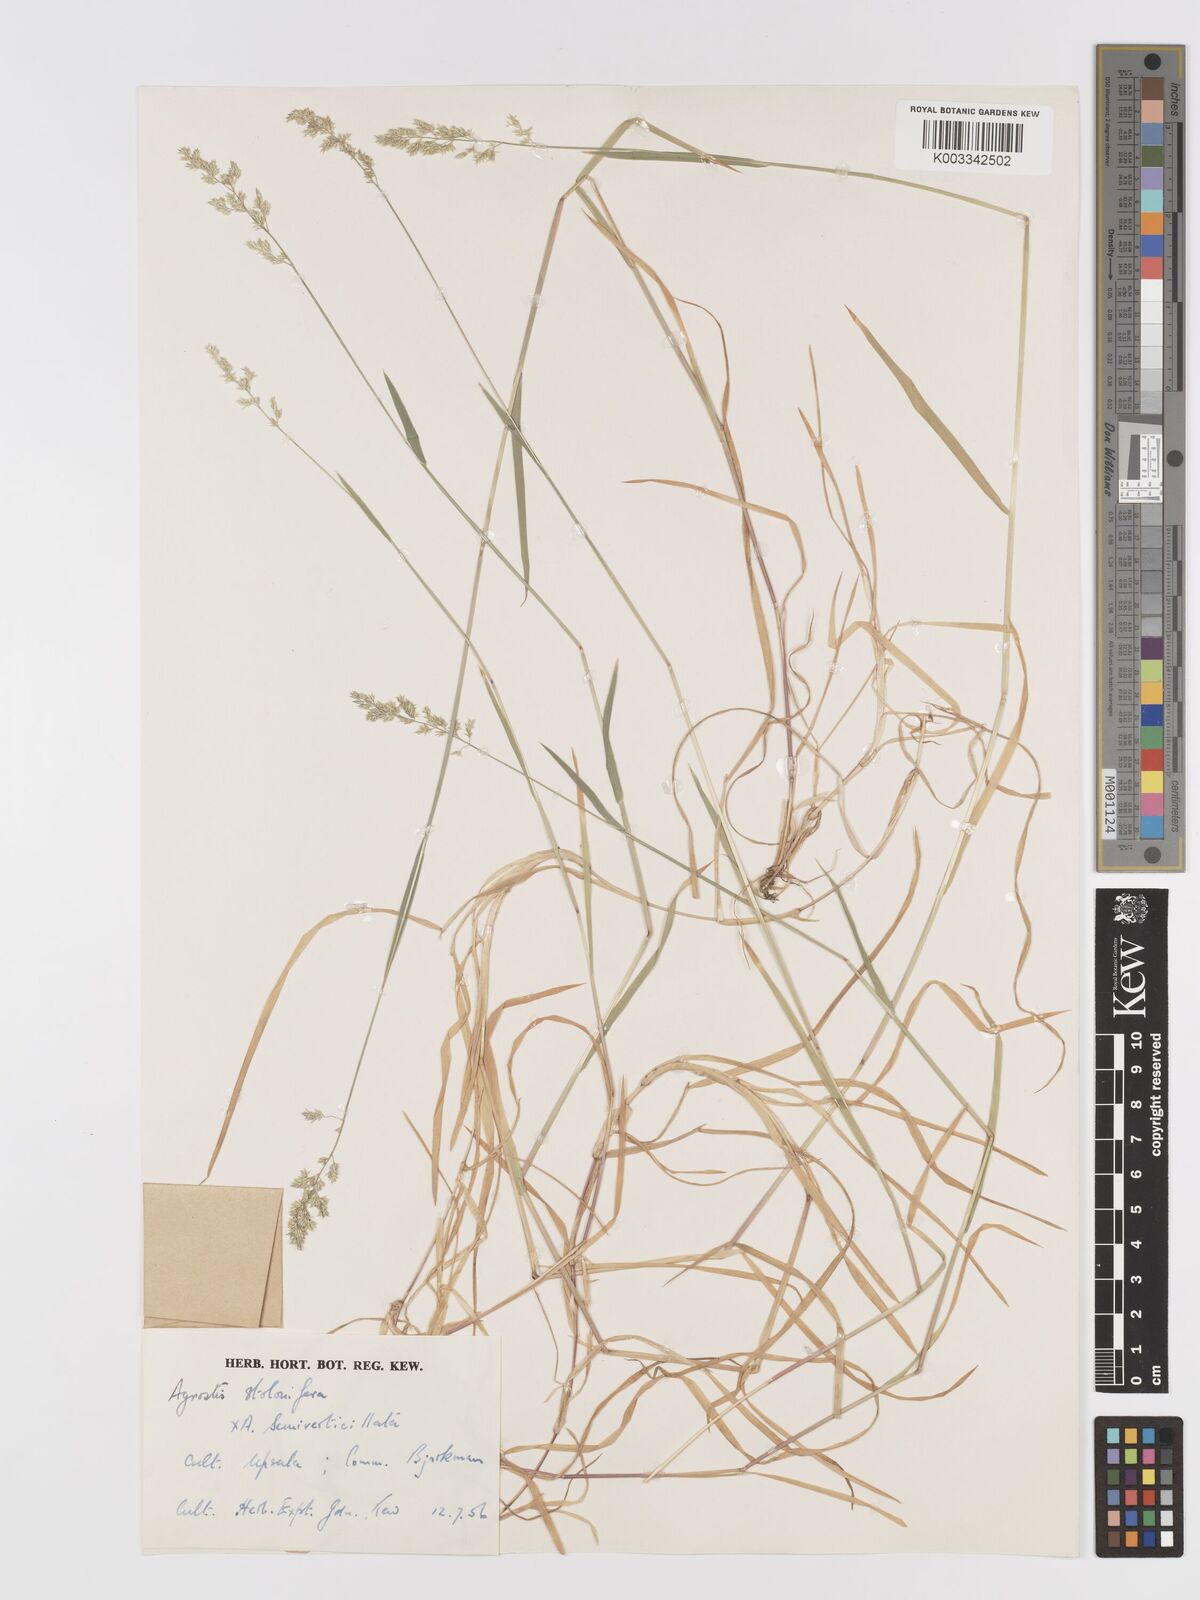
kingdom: Plantae
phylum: Tracheophyta
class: Liliopsida
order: Poales
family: Poaceae
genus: Agrostis
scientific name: Agrostis gigantea
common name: Black bent
